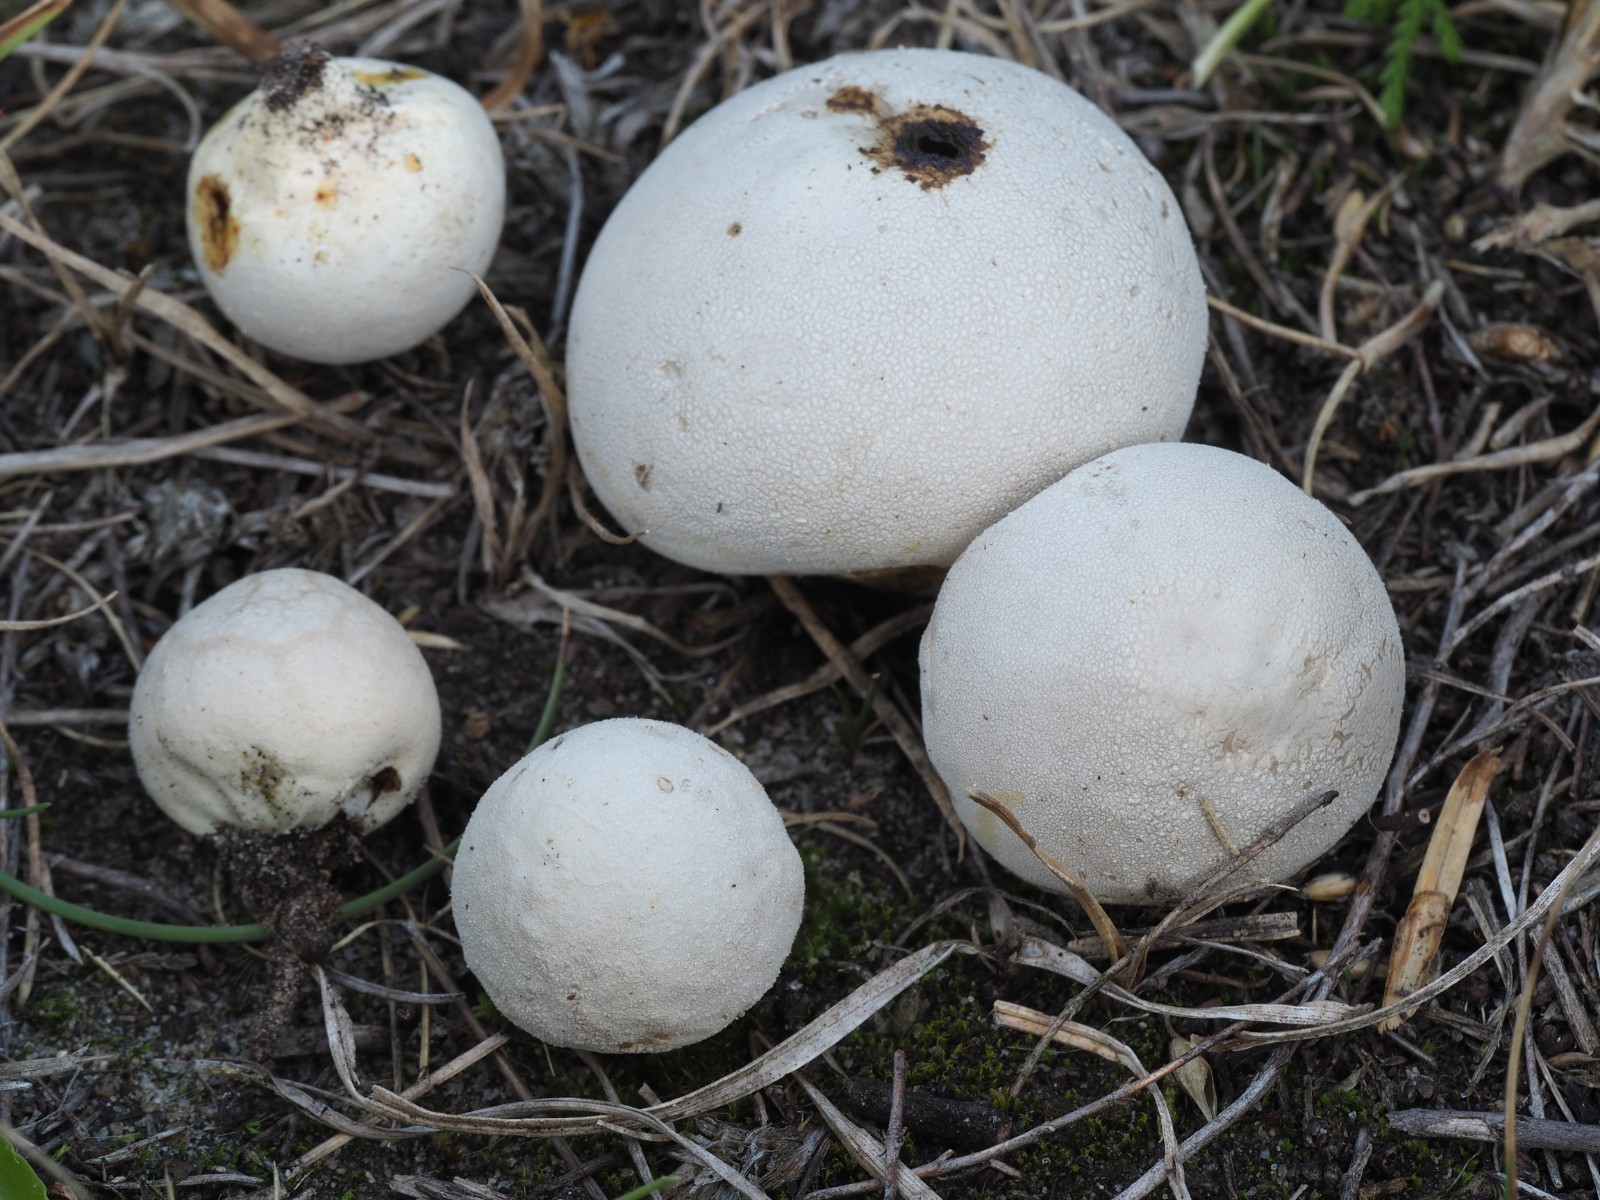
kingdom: Fungi
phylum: Basidiomycota
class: Agaricomycetes
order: Agaricales
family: Lycoperdaceae
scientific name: Lycoperdaceae
